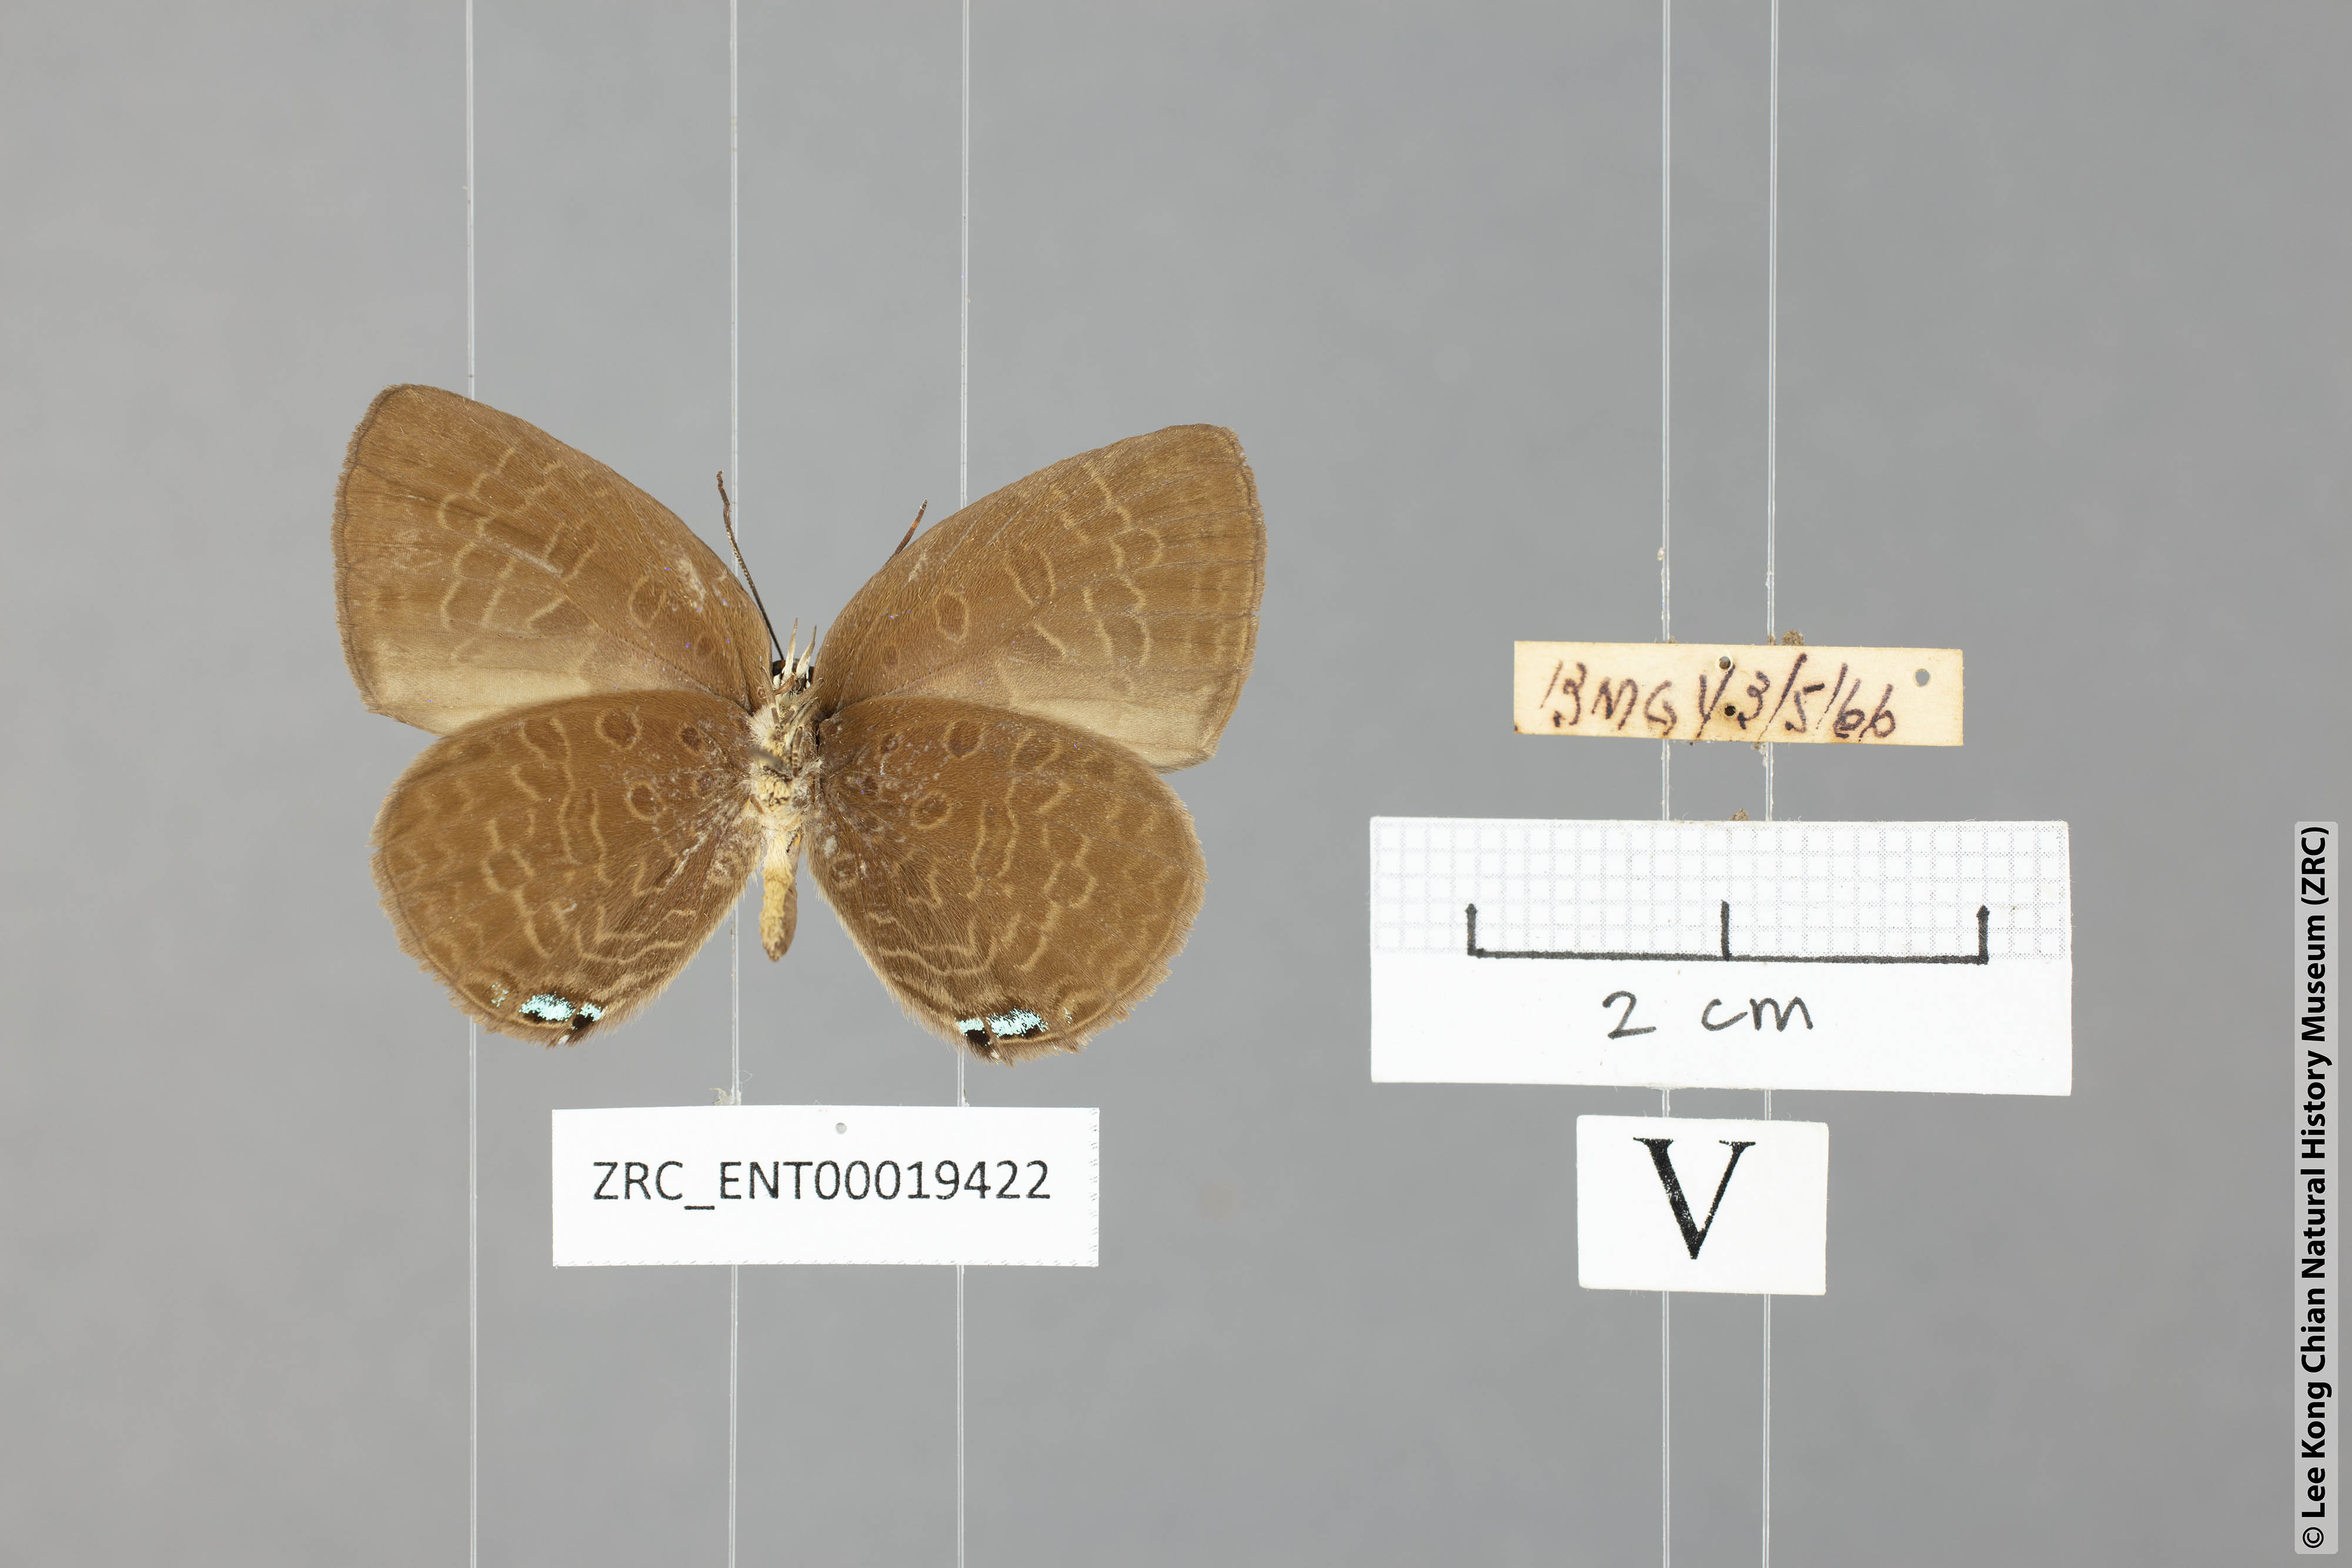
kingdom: Animalia
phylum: Arthropoda
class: Insecta
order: Lepidoptera
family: Lycaenidae
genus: Arhopala
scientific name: Arhopala epimuta
